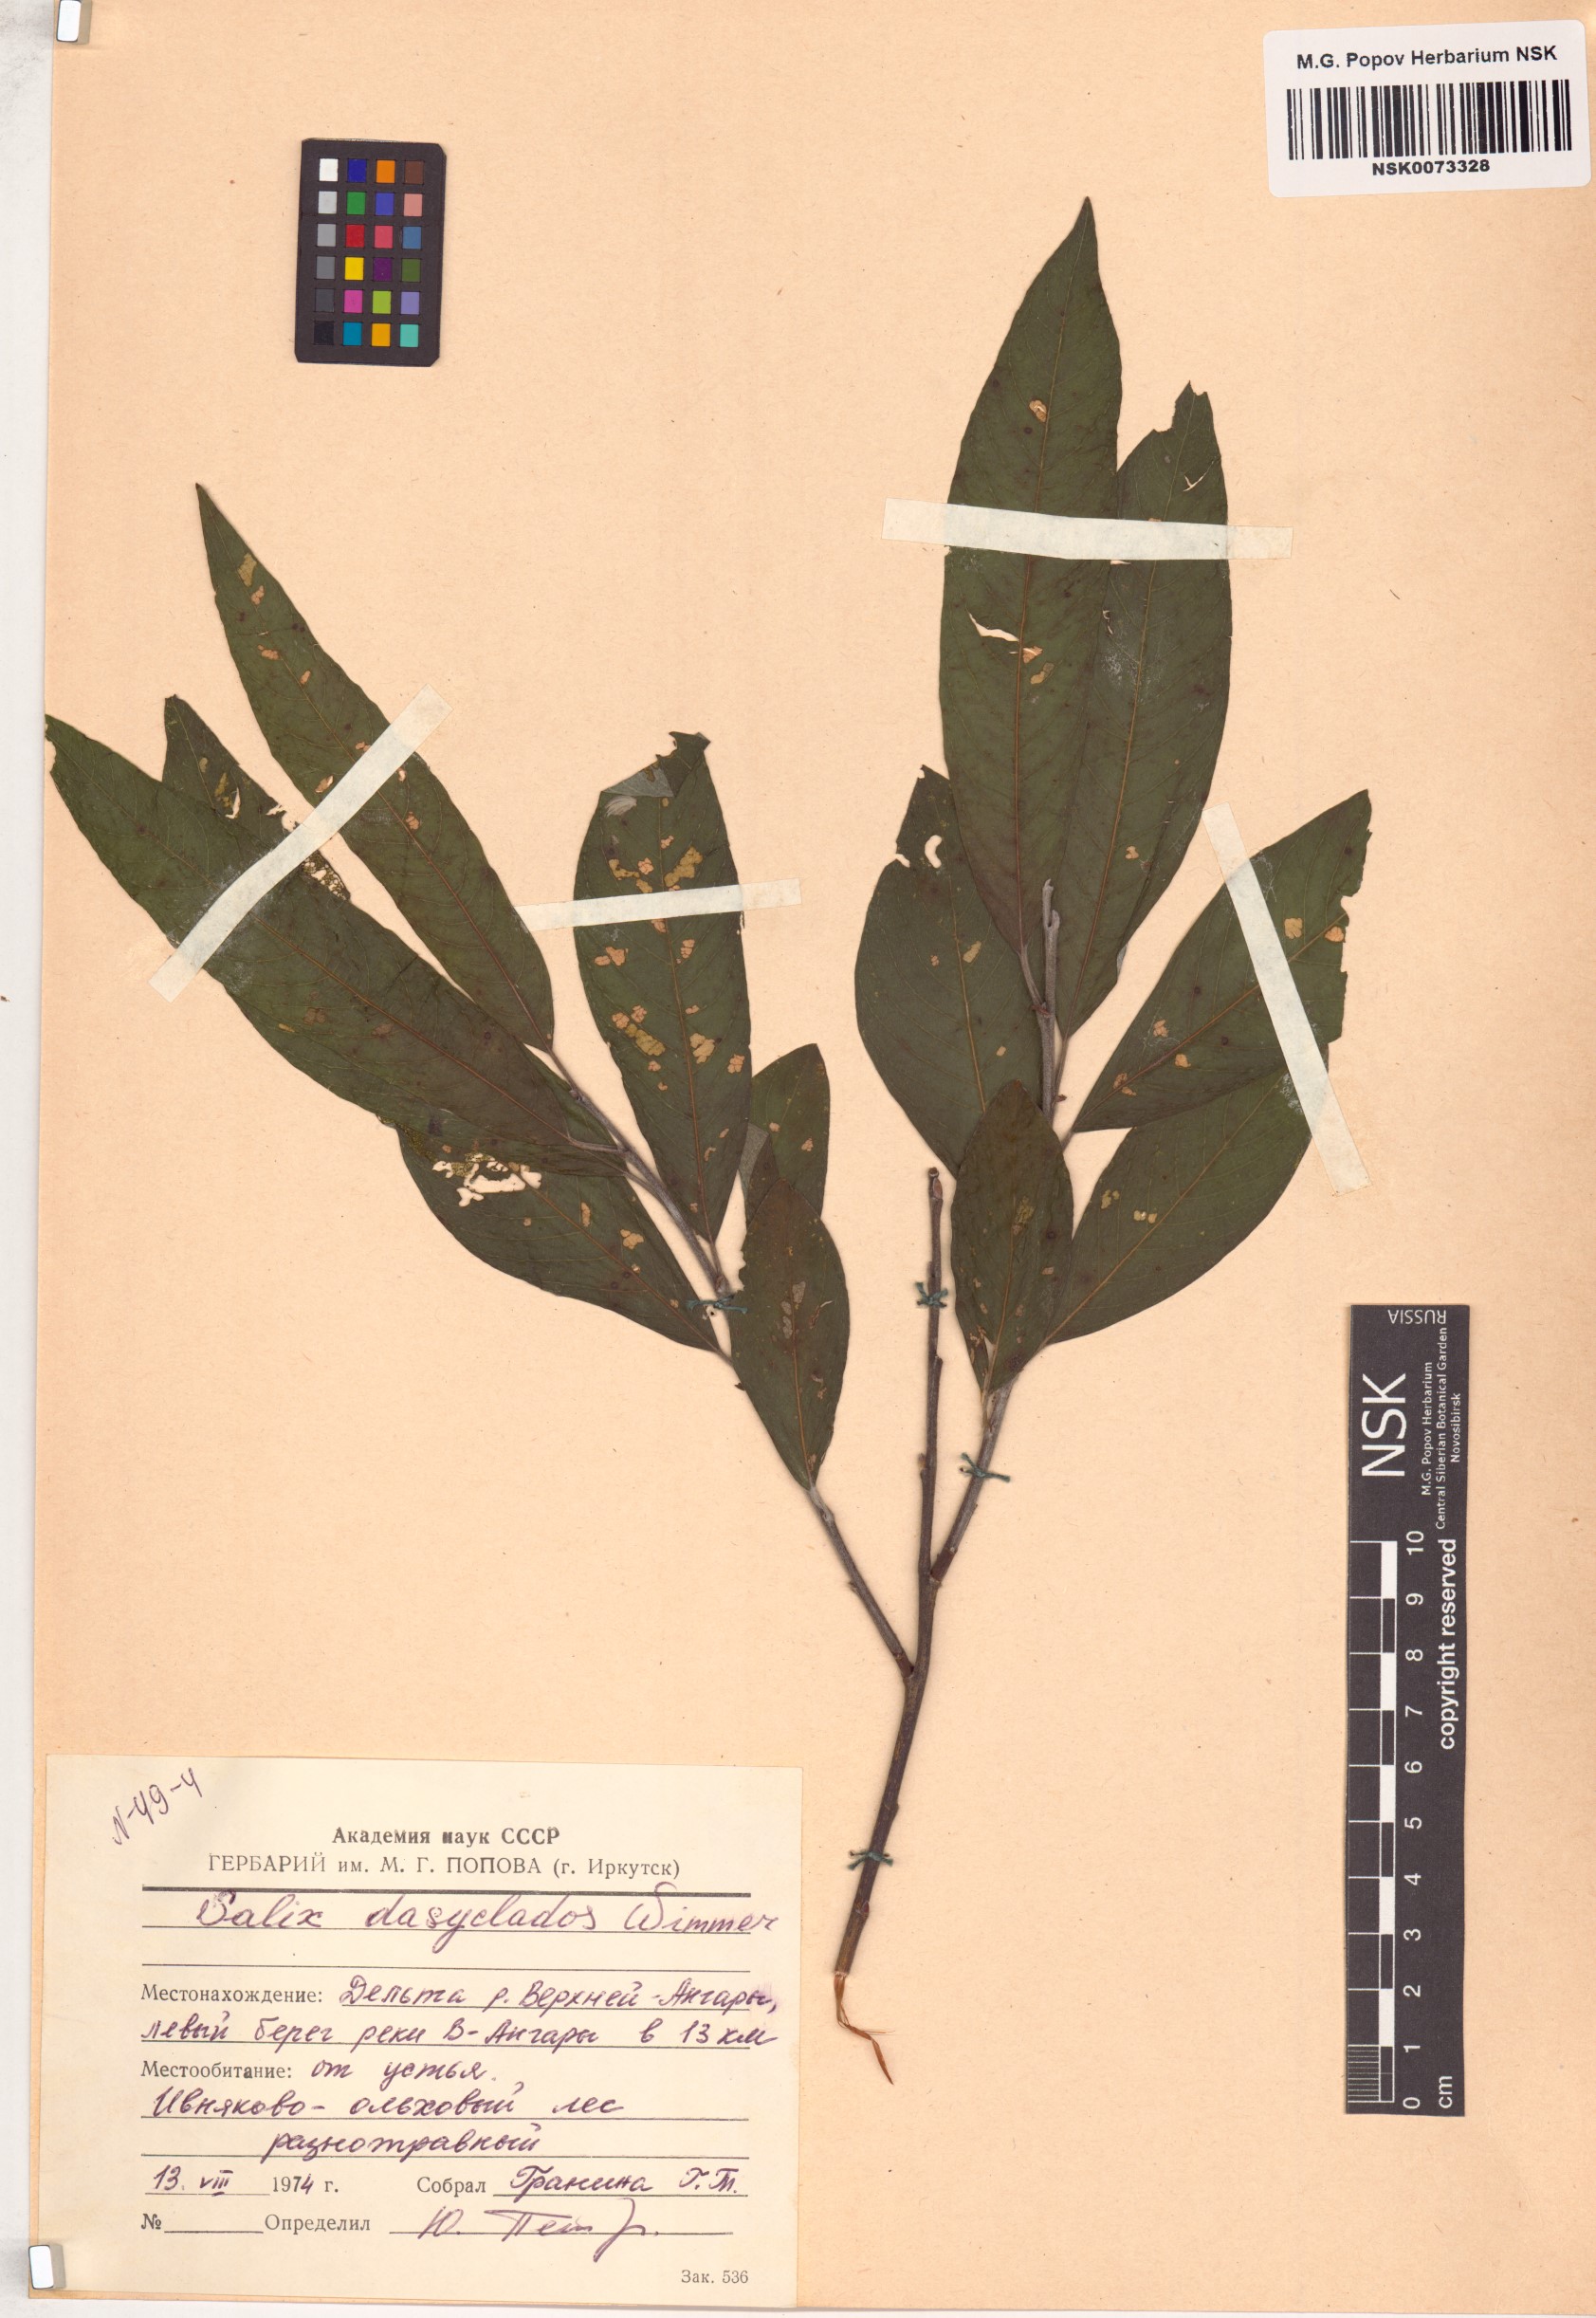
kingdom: Plantae
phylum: Tracheophyta
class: Magnoliopsida
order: Malpighiales
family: Salicaceae
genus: Salix
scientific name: Salix gmelinii
